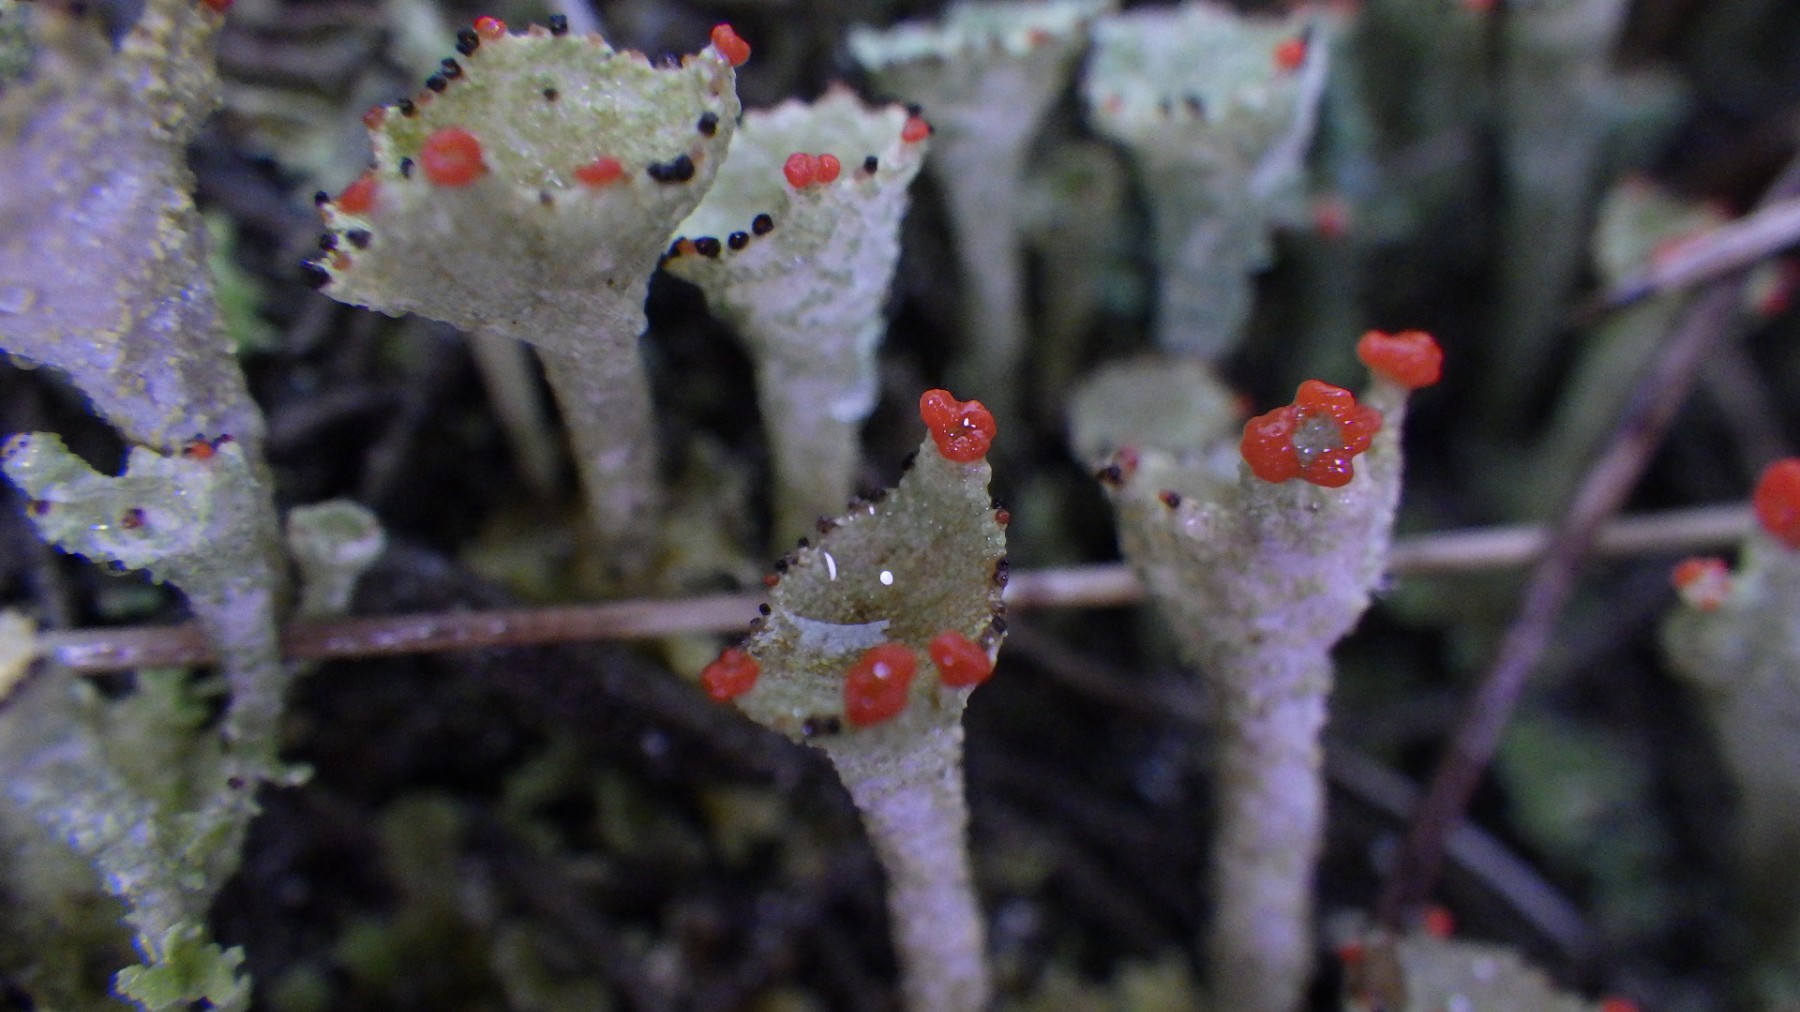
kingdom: Fungi
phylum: Ascomycota
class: Lecanoromycetes
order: Lecanorales
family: Cladoniaceae
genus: Cladonia
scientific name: Cladonia diversa
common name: rød bægerlav
